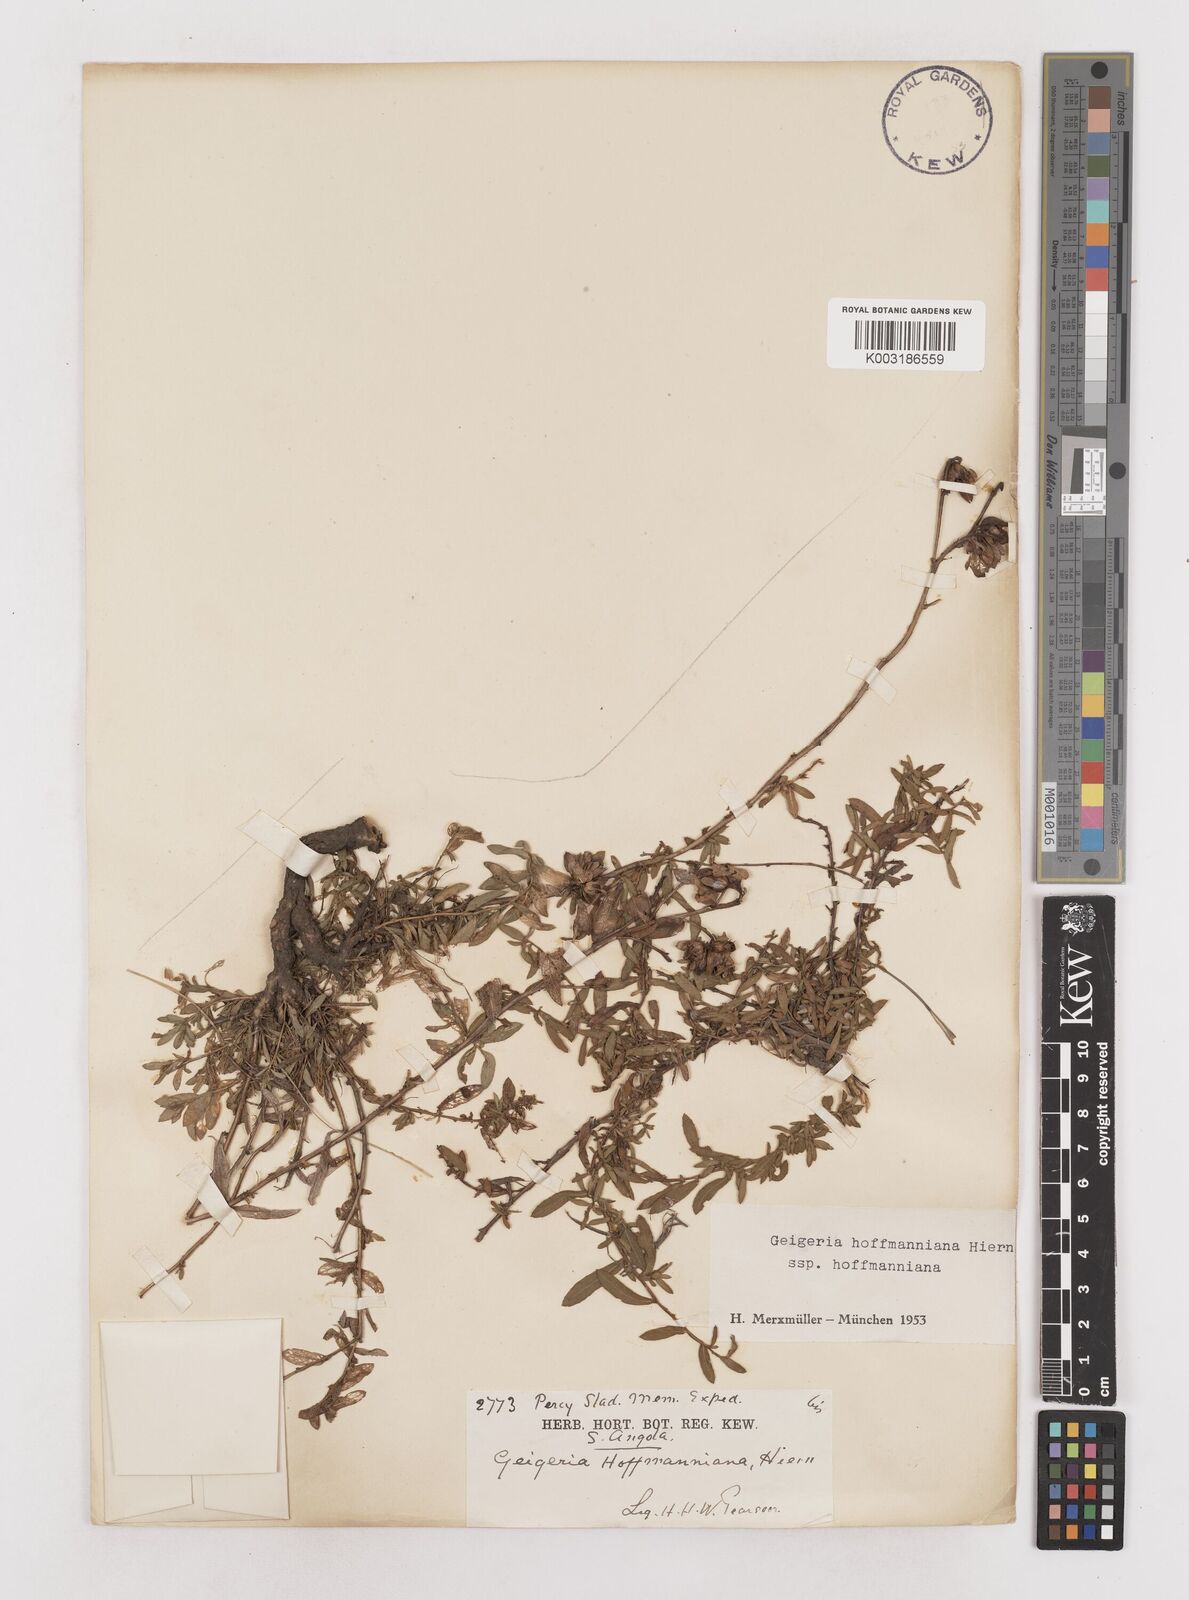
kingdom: Plantae
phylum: Tracheophyta
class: Magnoliopsida
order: Asterales
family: Asteraceae
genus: Geigeria
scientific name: Geigeria hoffmanniana
